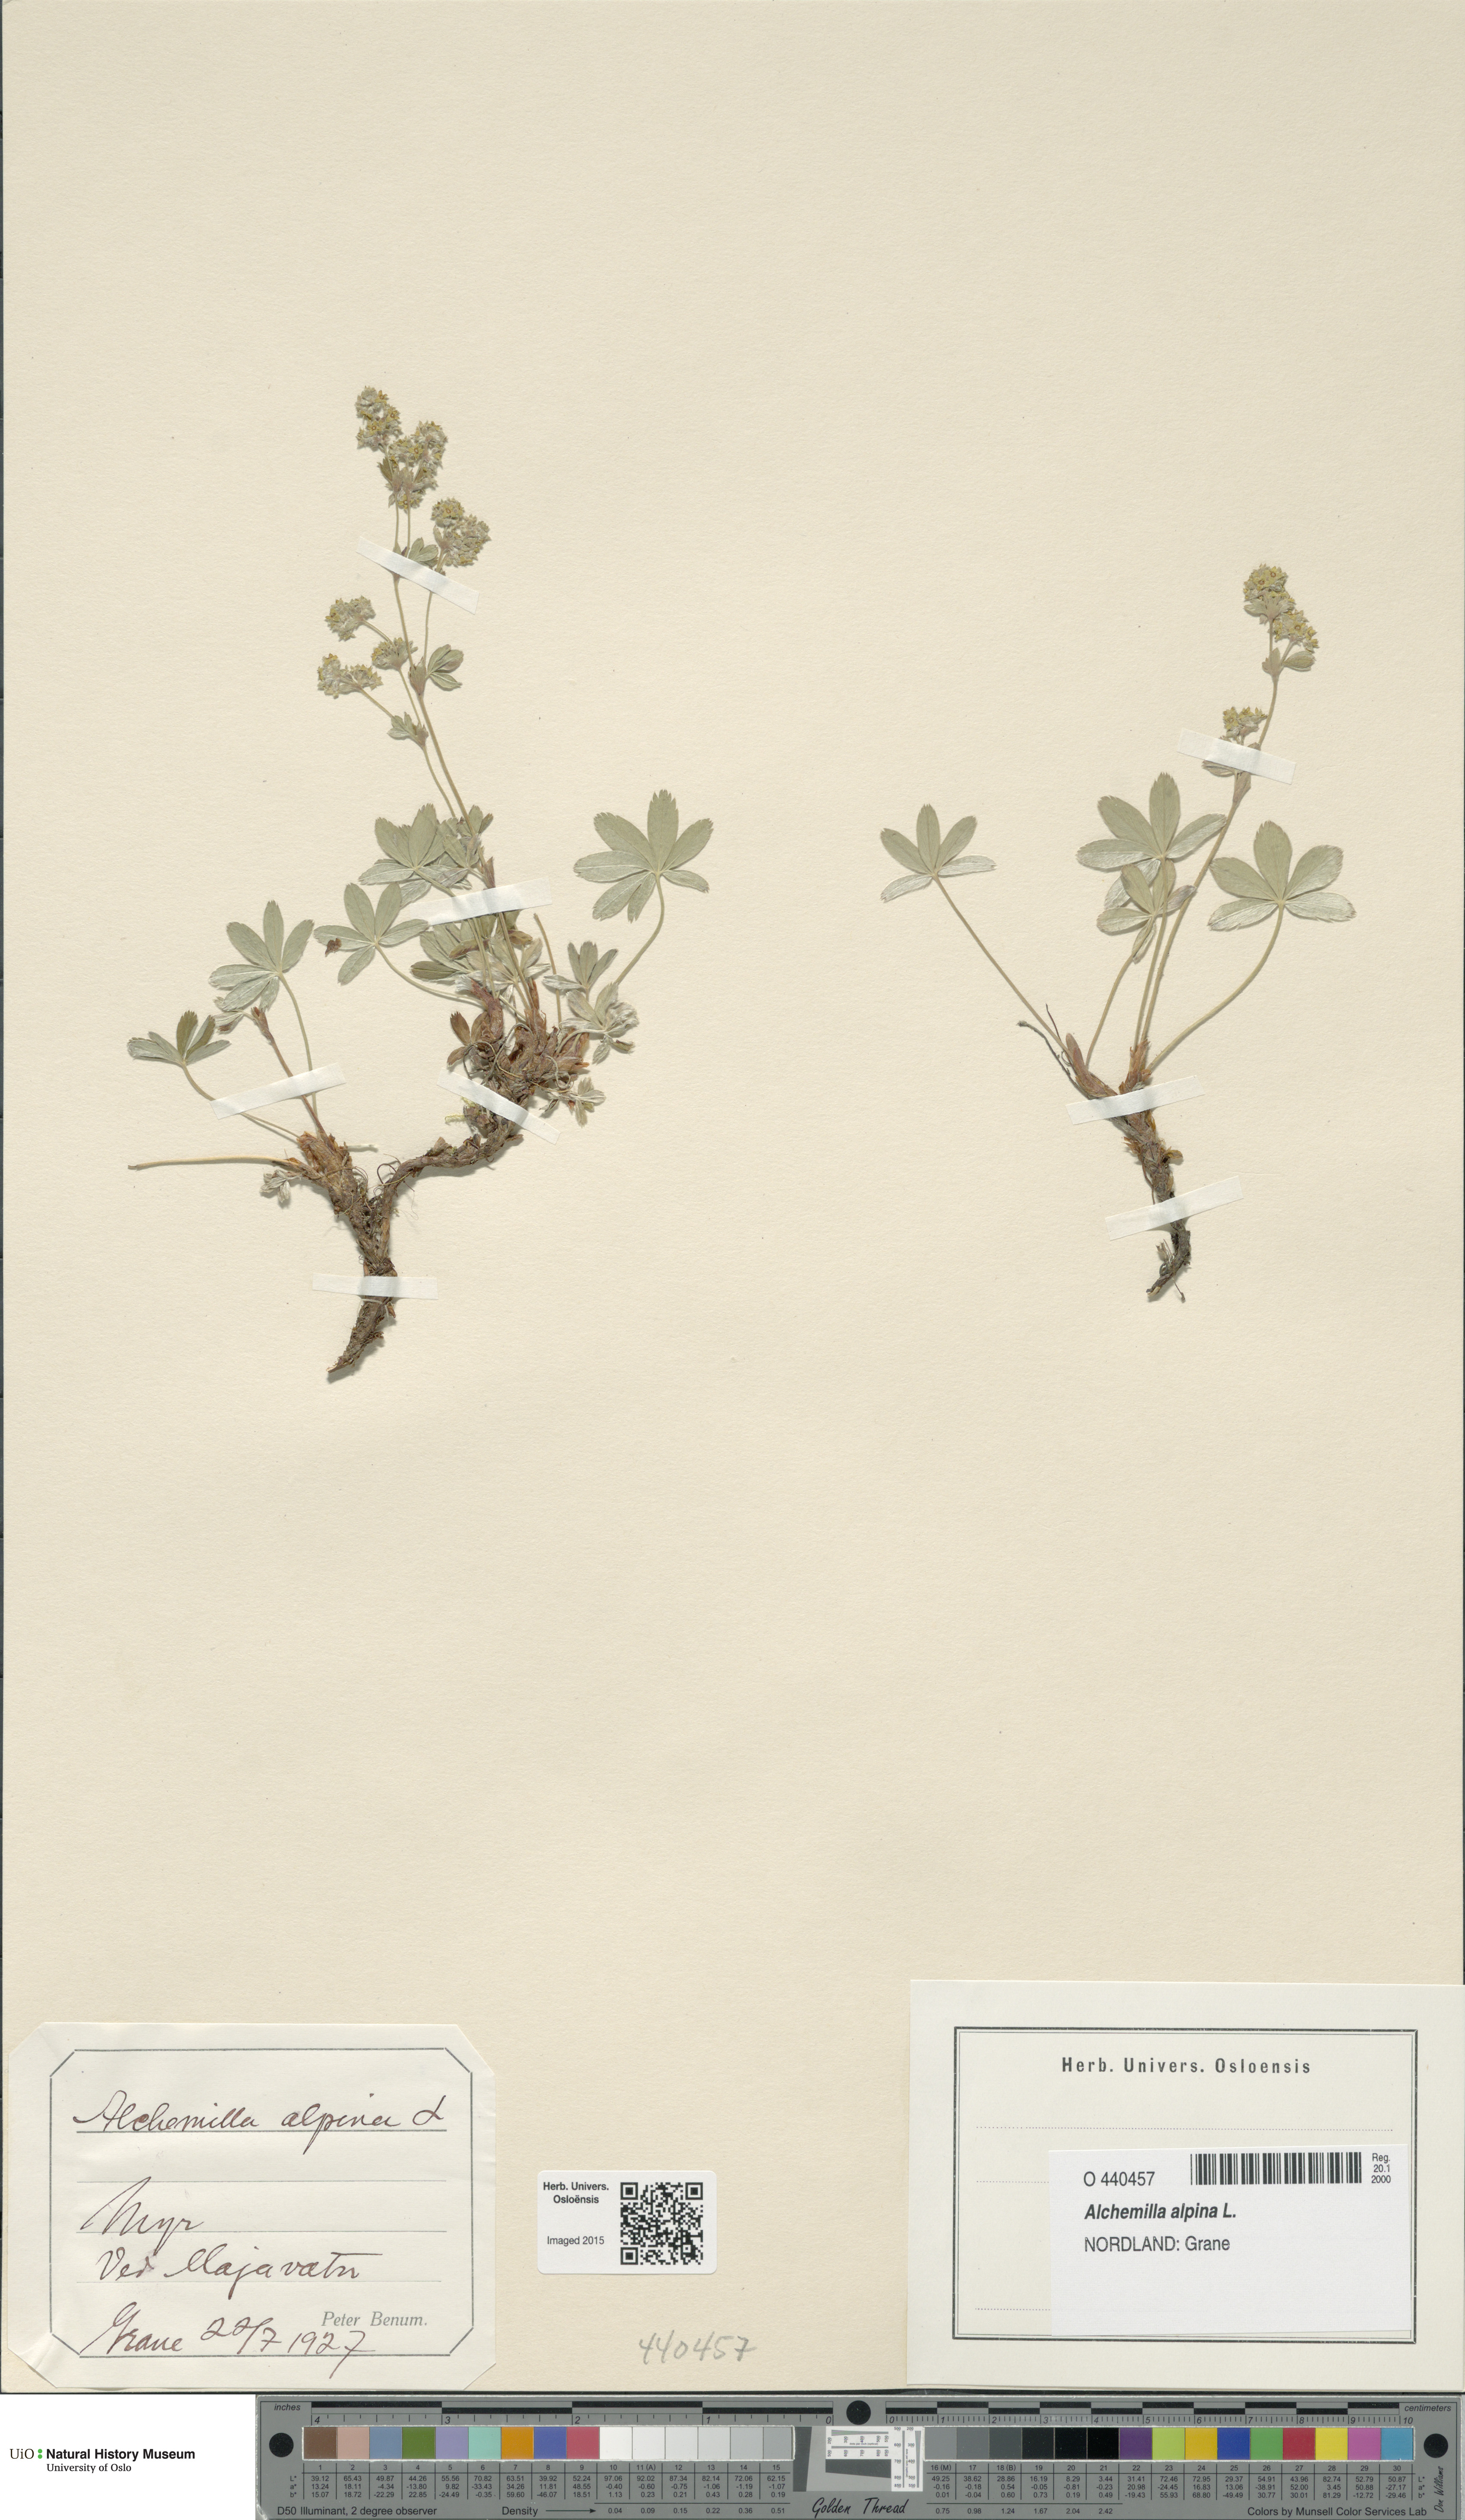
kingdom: Plantae
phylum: Tracheophyta
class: Magnoliopsida
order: Rosales
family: Rosaceae
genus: Alchemilla
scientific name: Alchemilla alpina
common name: Alpine lady's-mantle
